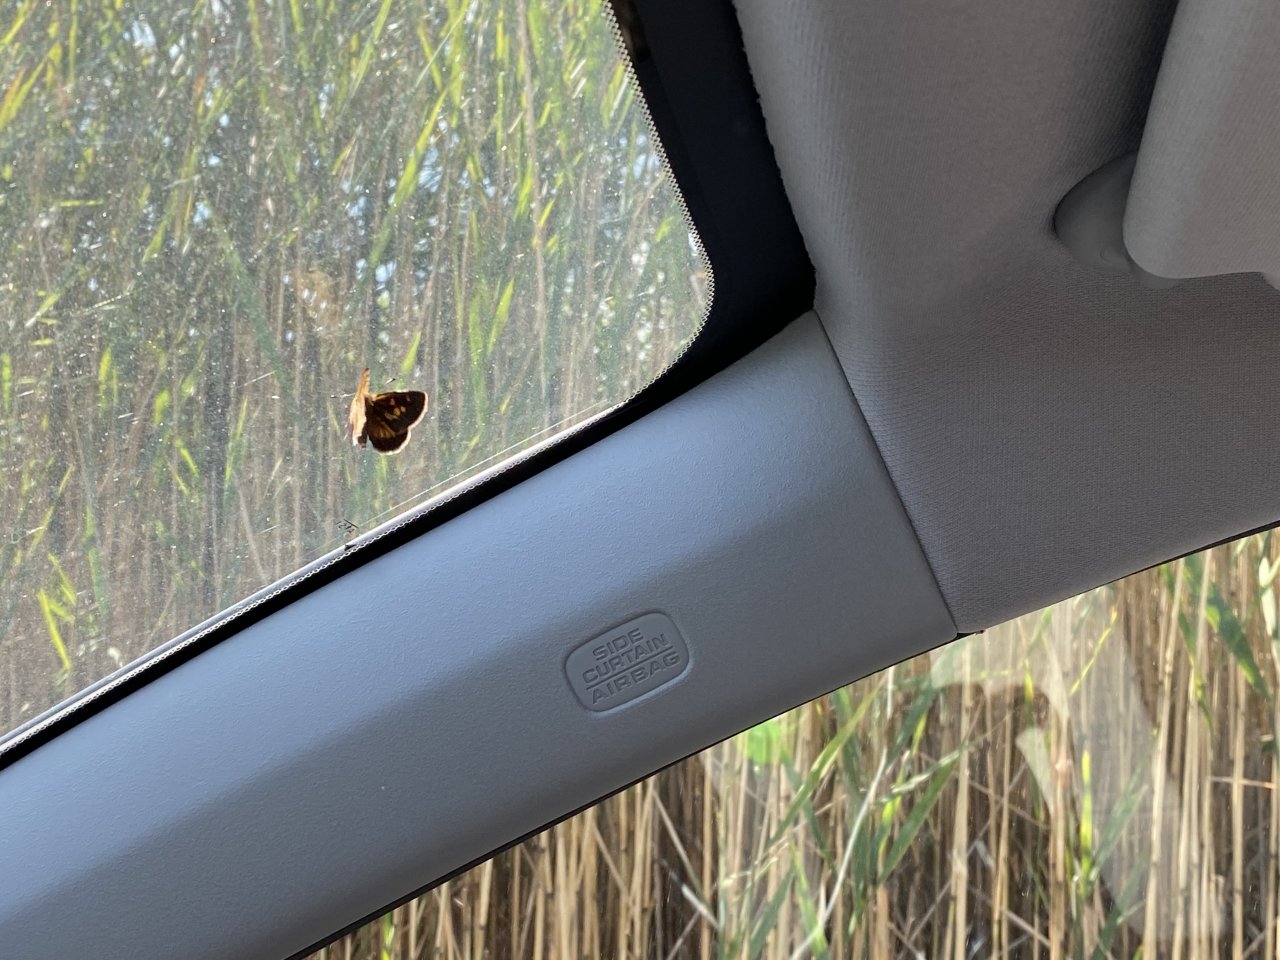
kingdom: Animalia
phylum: Arthropoda
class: Insecta
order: Lepidoptera
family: Hesperiidae
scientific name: Hesperiidae
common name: Skippers
